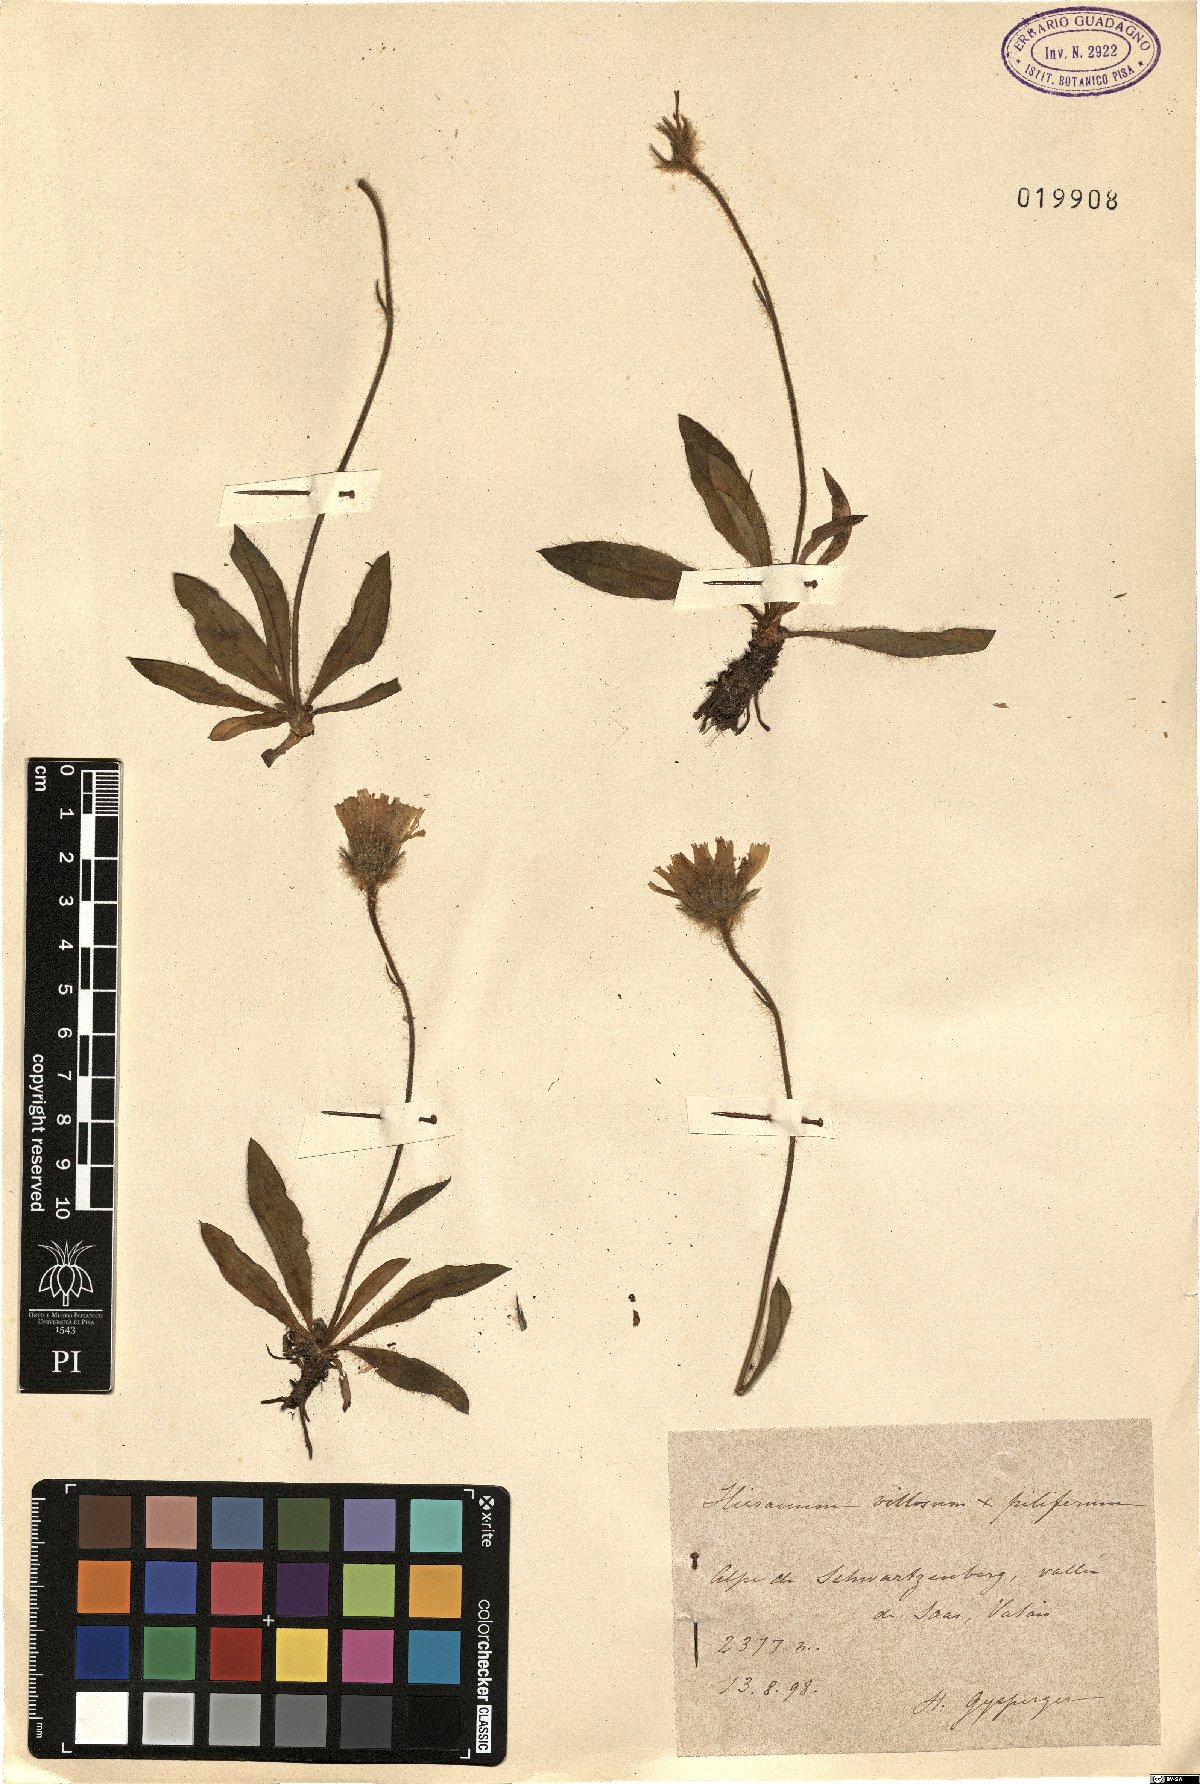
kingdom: Plantae
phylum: Tracheophyta
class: Magnoliopsida
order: Asterales
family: Asteraceae
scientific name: Asteraceae
